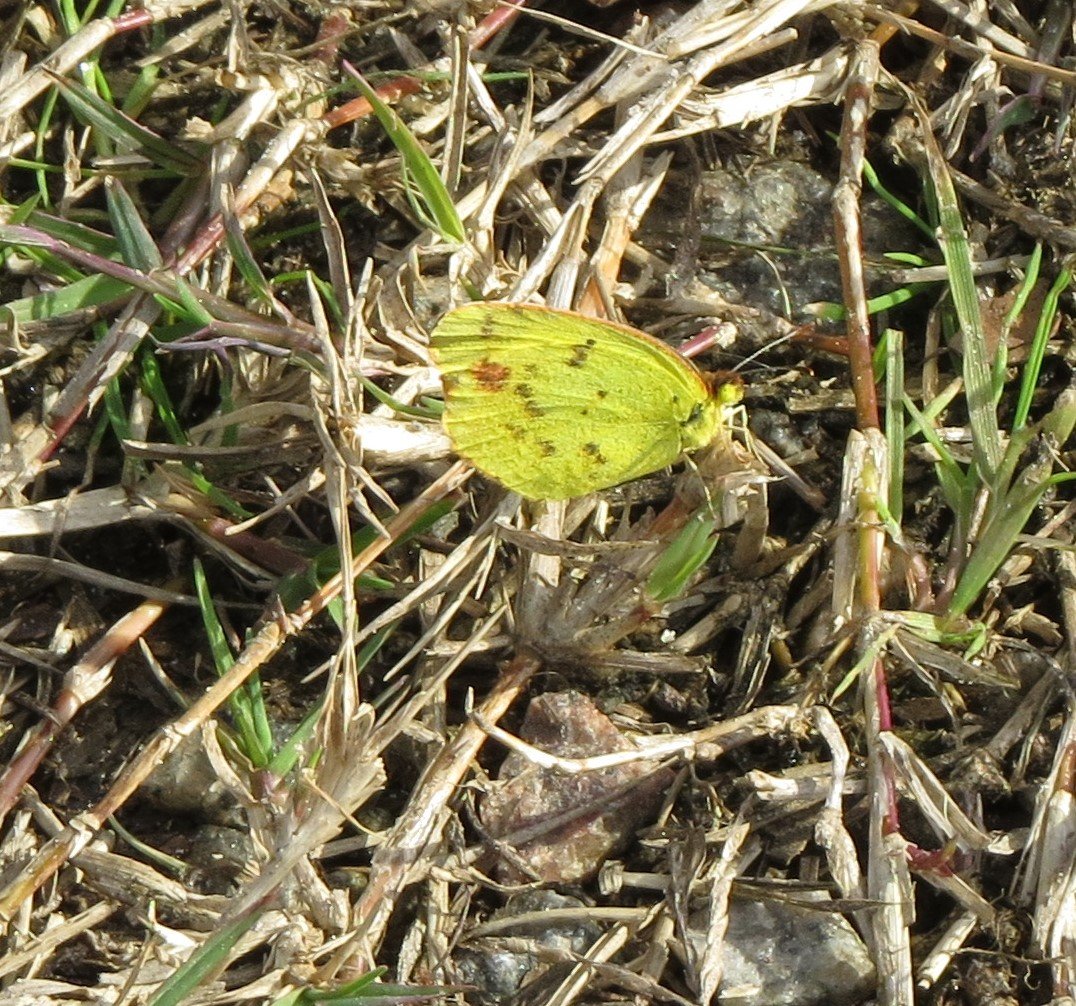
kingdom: Animalia
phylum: Arthropoda
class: Insecta
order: Lepidoptera
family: Pieridae
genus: Pyrisitia
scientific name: Pyrisitia lisa
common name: Little Yellow
